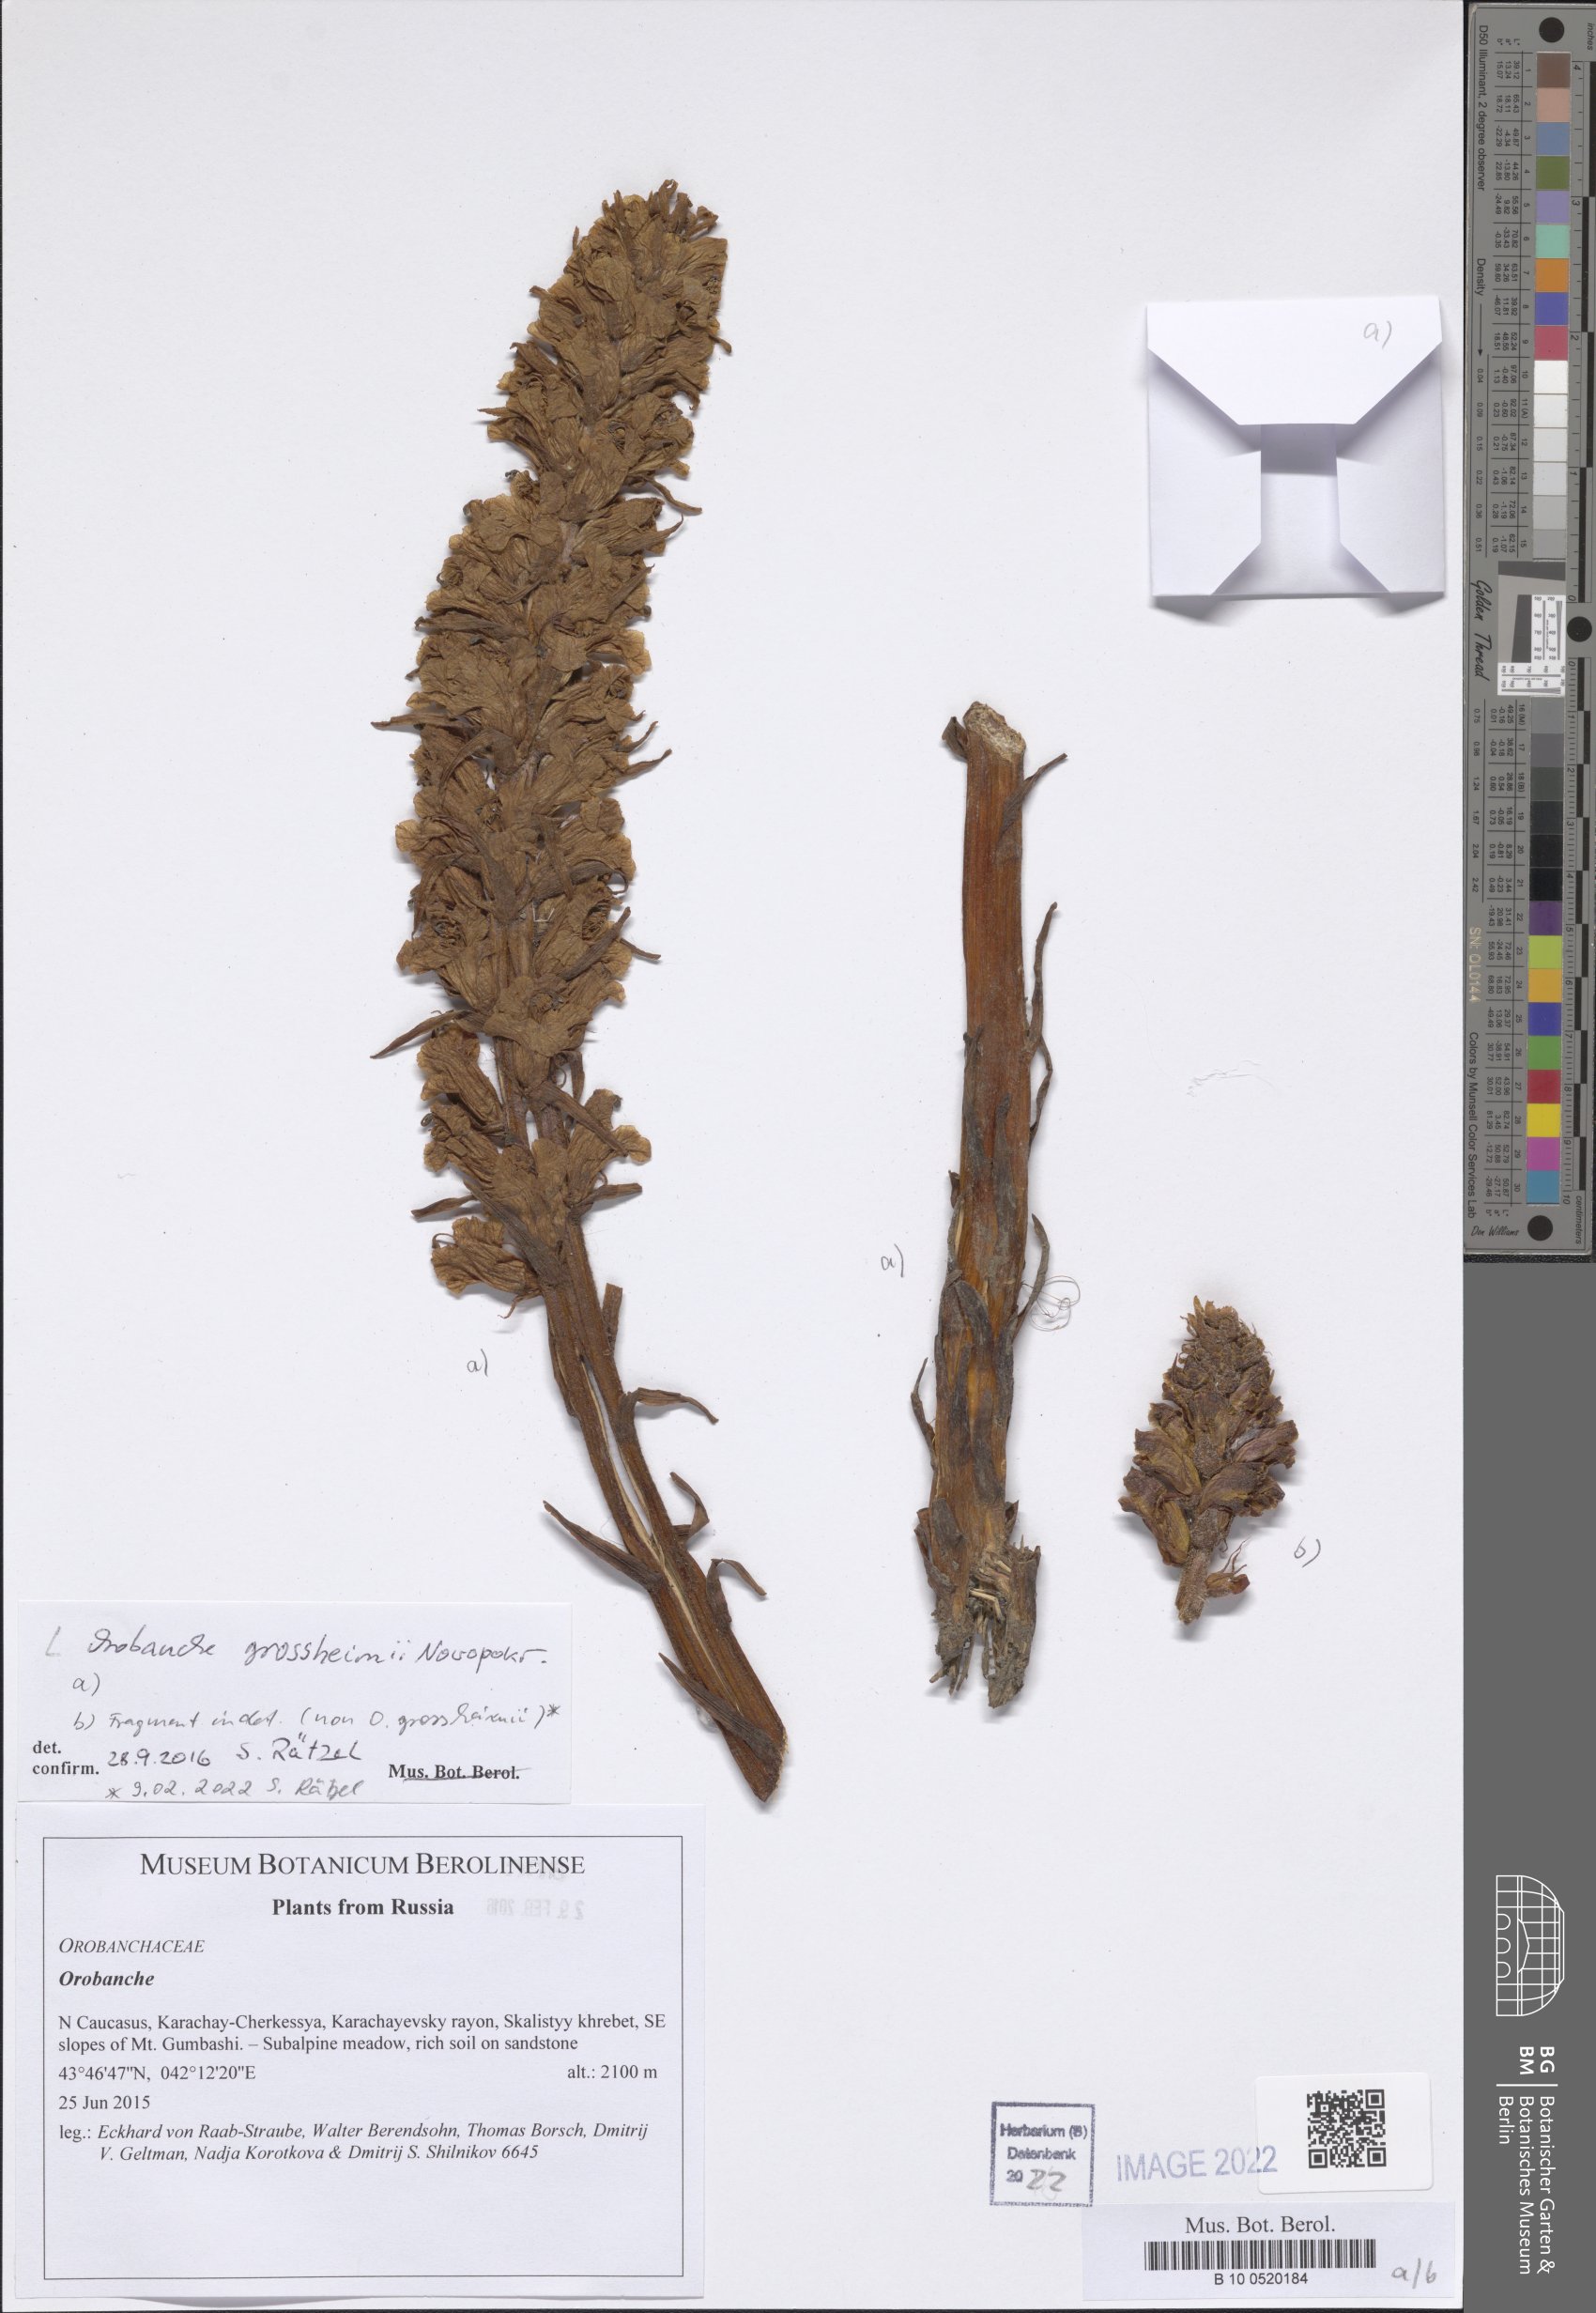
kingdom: Plantae
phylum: Tracheophyta
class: Magnoliopsida
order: Lamiales
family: Orobanchaceae
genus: Orobanche
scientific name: Orobanche grossheimii
